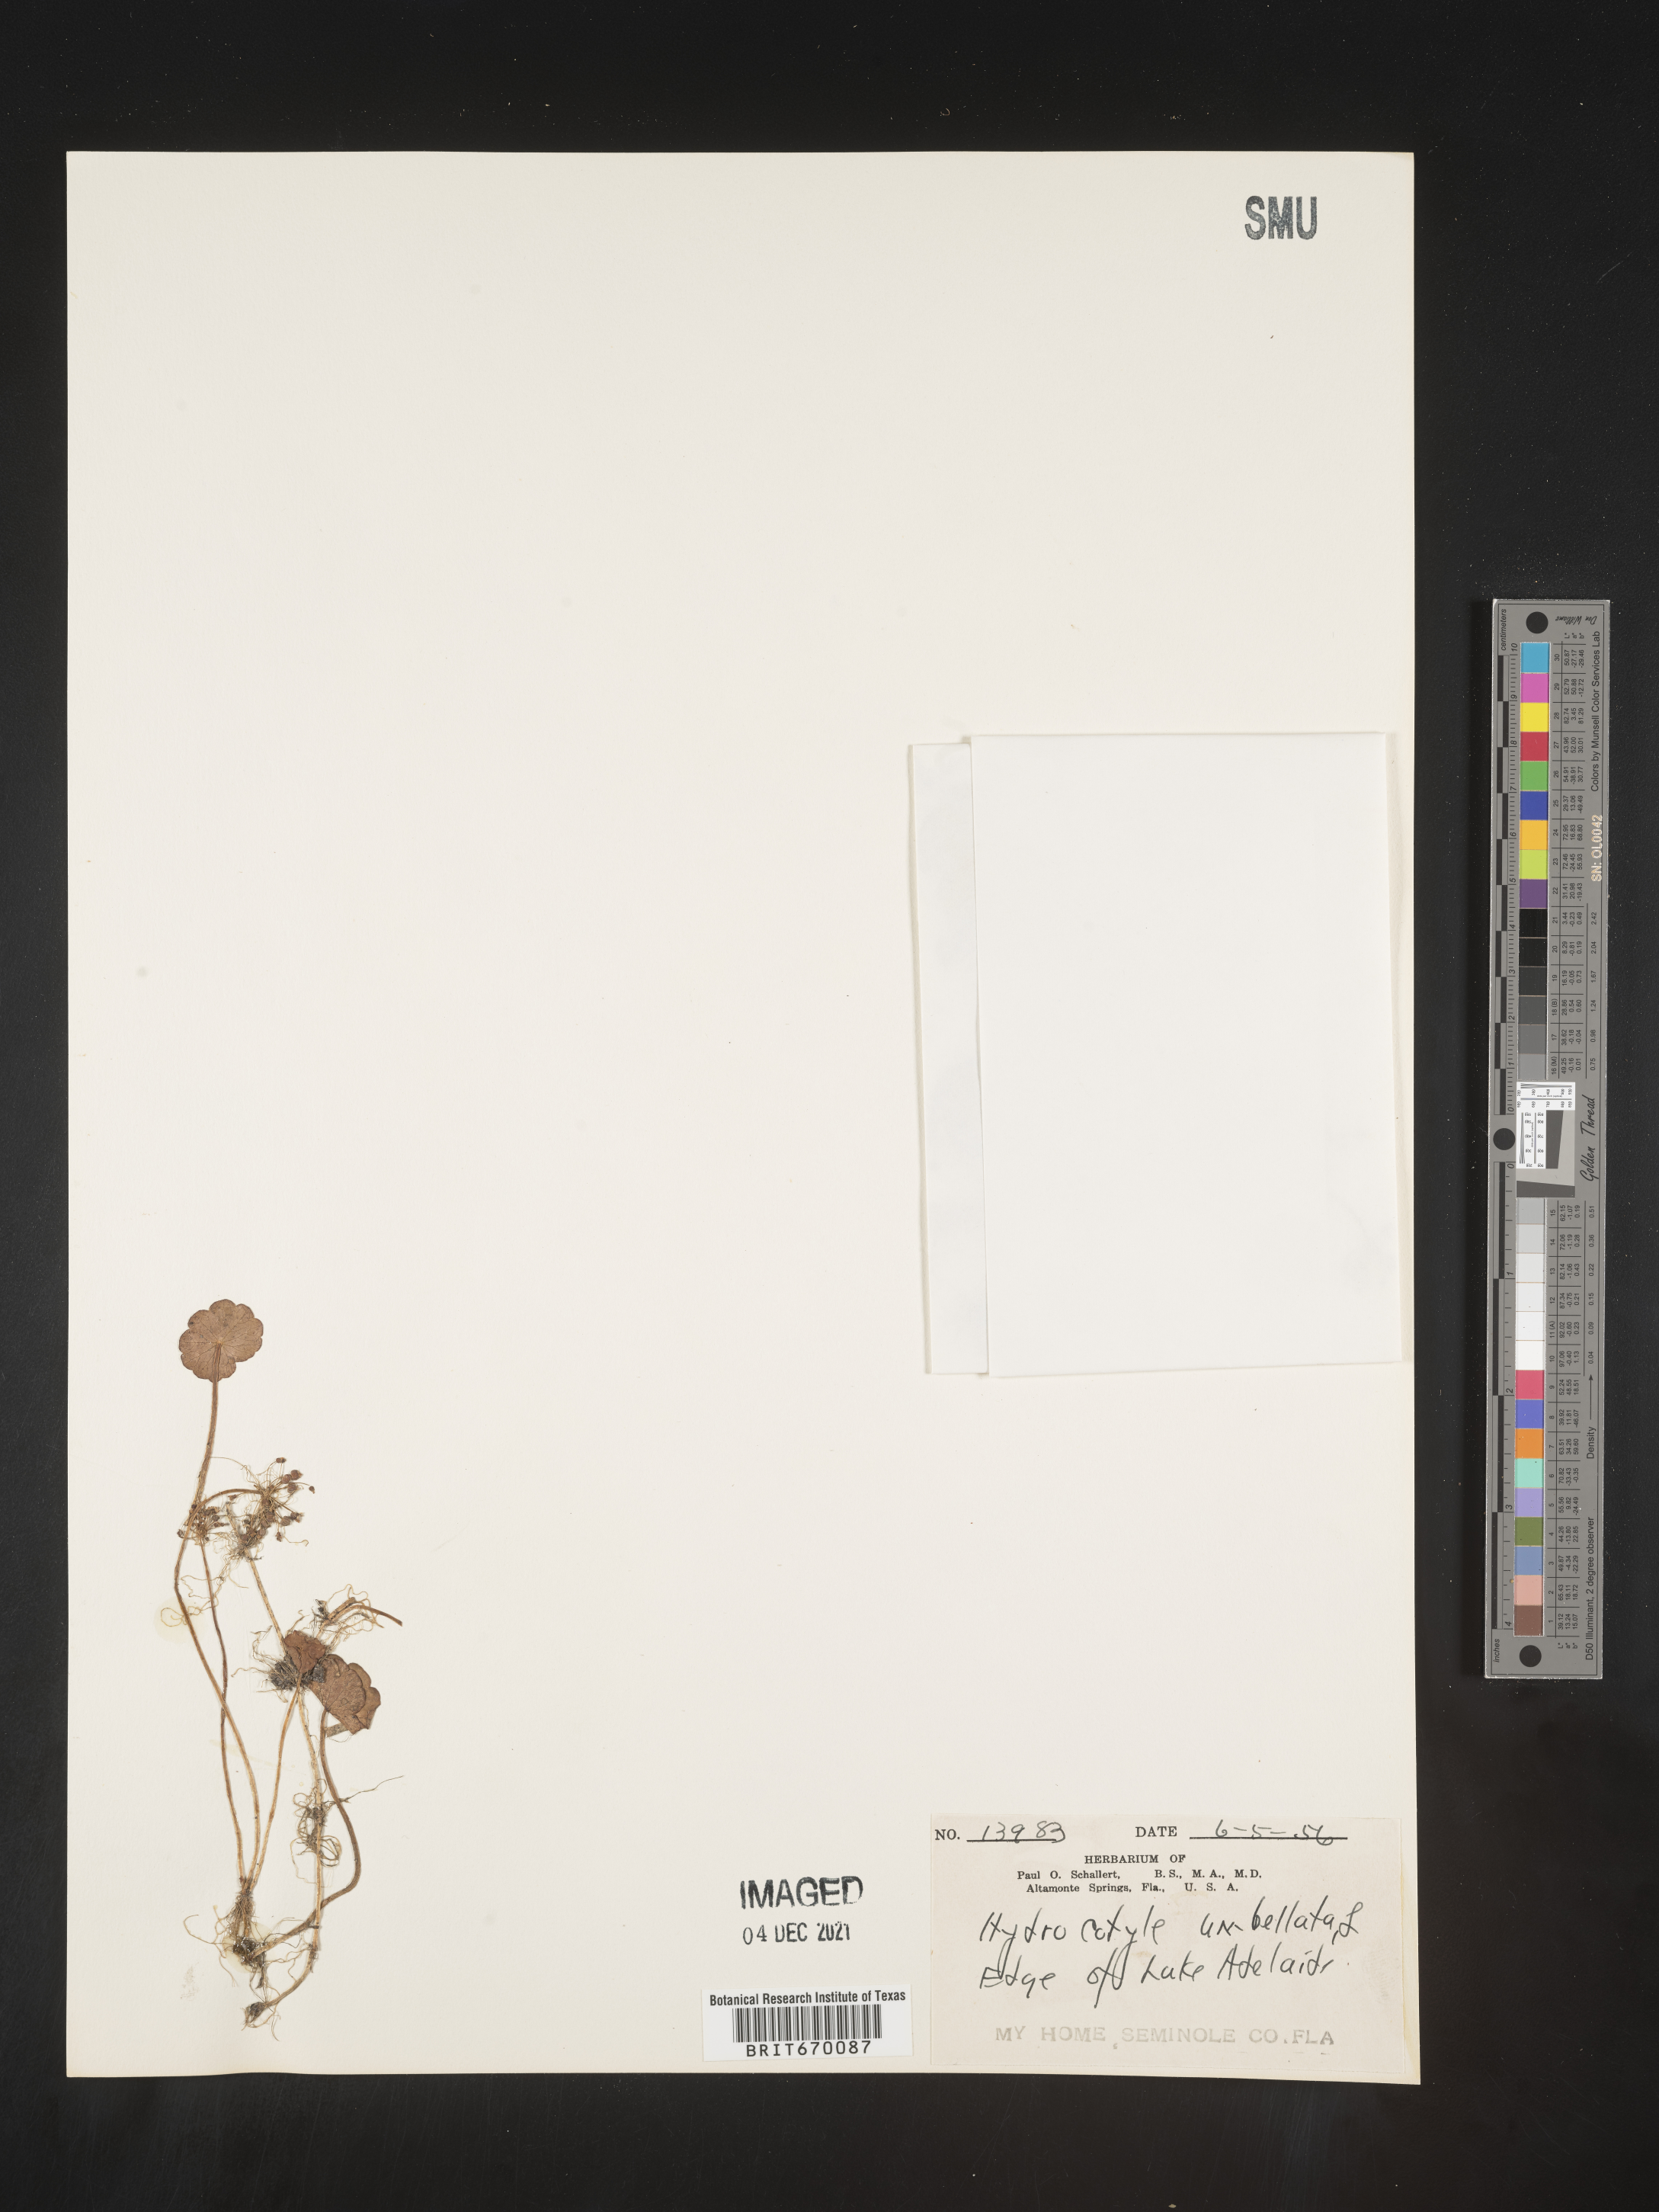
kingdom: Plantae
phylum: Tracheophyta
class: Magnoliopsida
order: Apiales
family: Araliaceae
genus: Hydrocotyle
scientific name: Hydrocotyle umbellata
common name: Water pennywort
